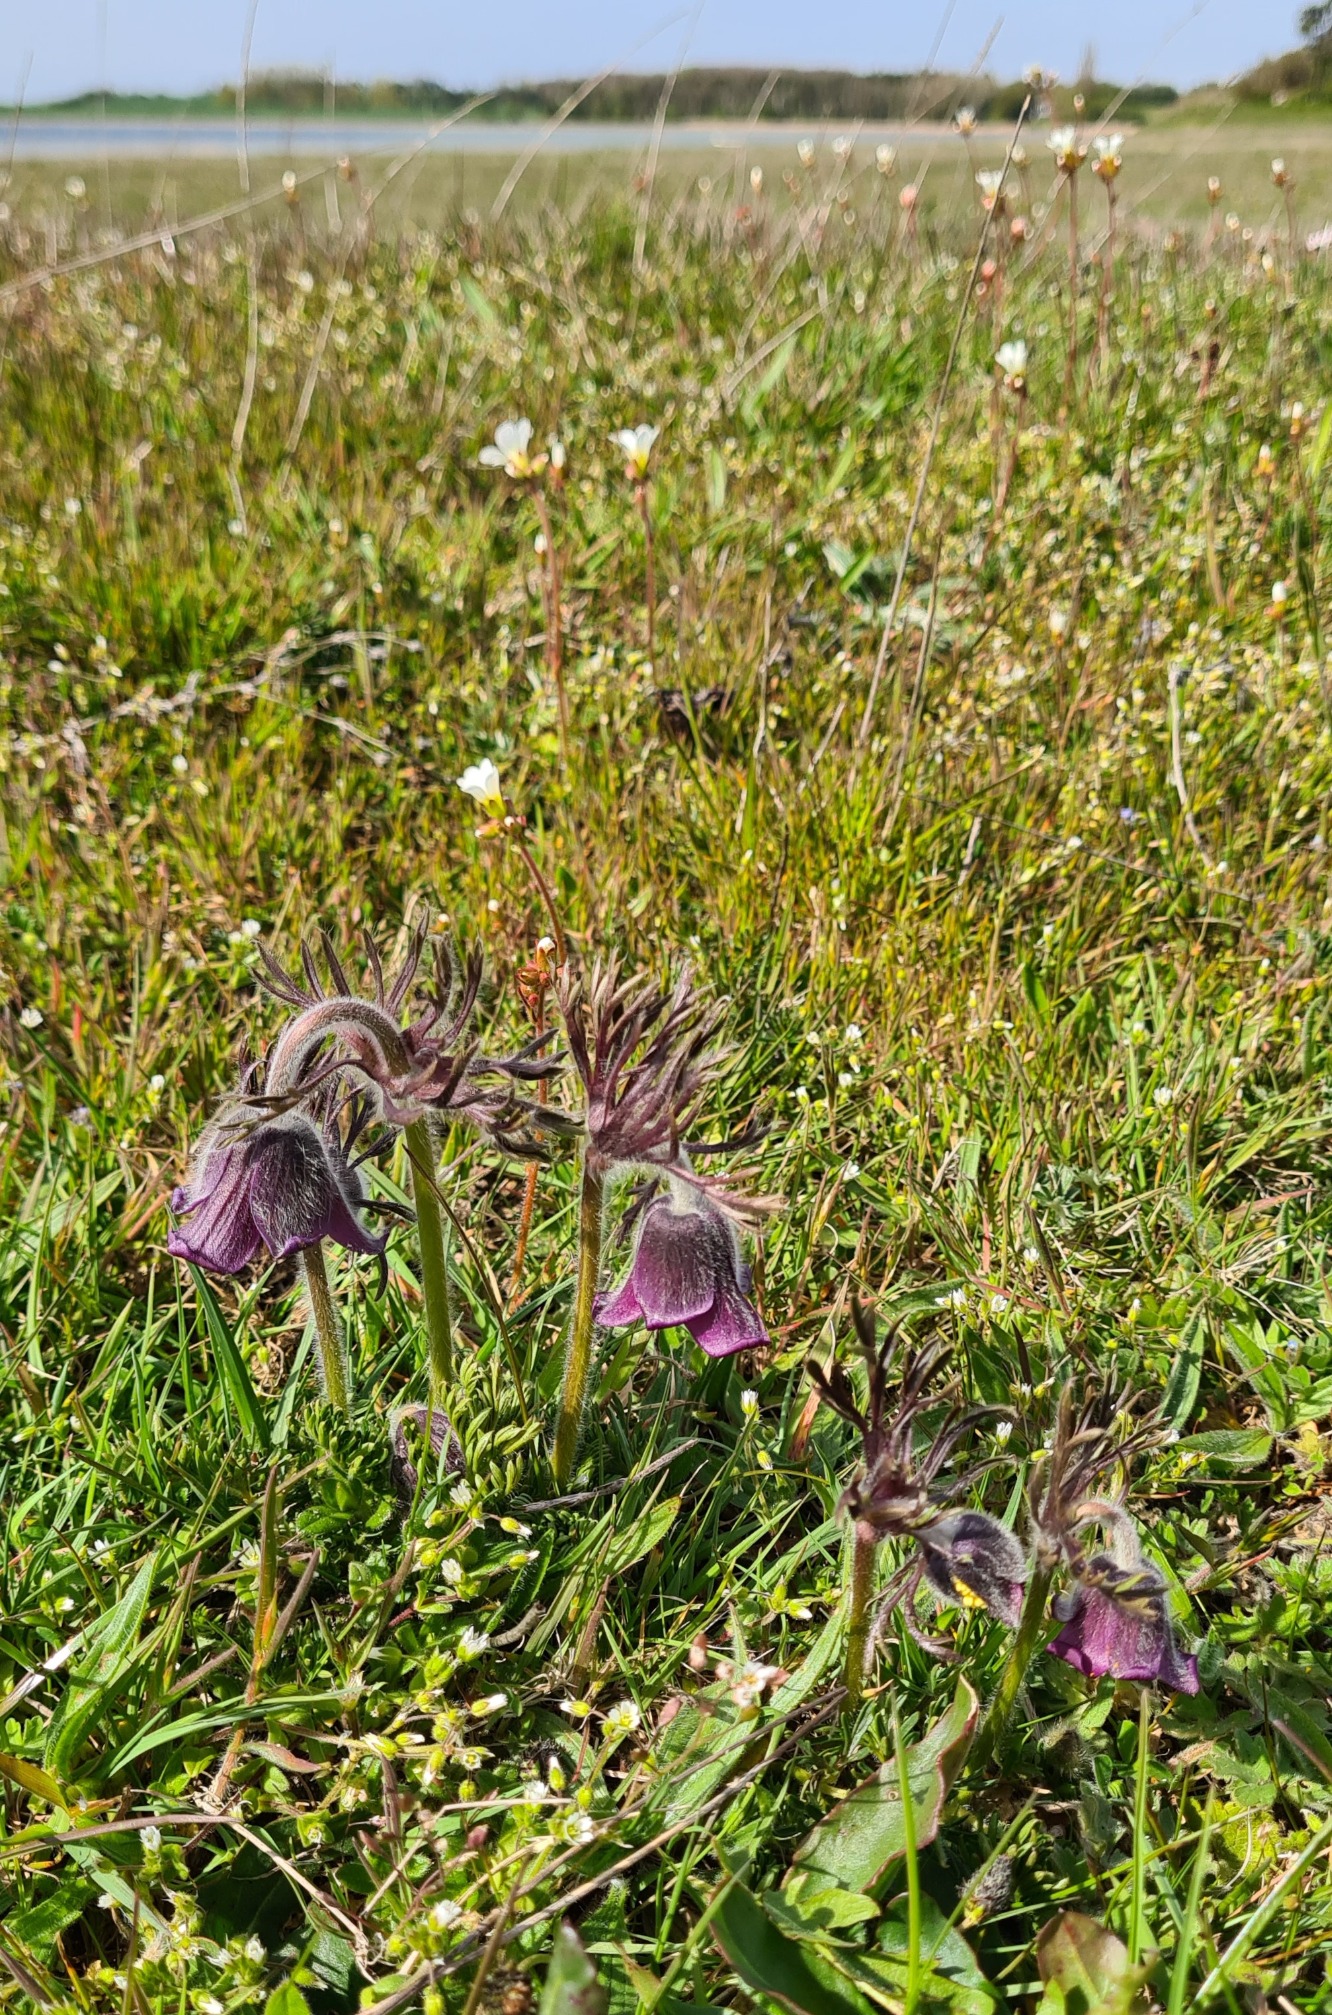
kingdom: Plantae
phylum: Tracheophyta
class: Magnoliopsida
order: Ranunculales
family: Ranunculaceae
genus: Pulsatilla
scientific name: Pulsatilla pratensis
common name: Nikkende kobjælde
